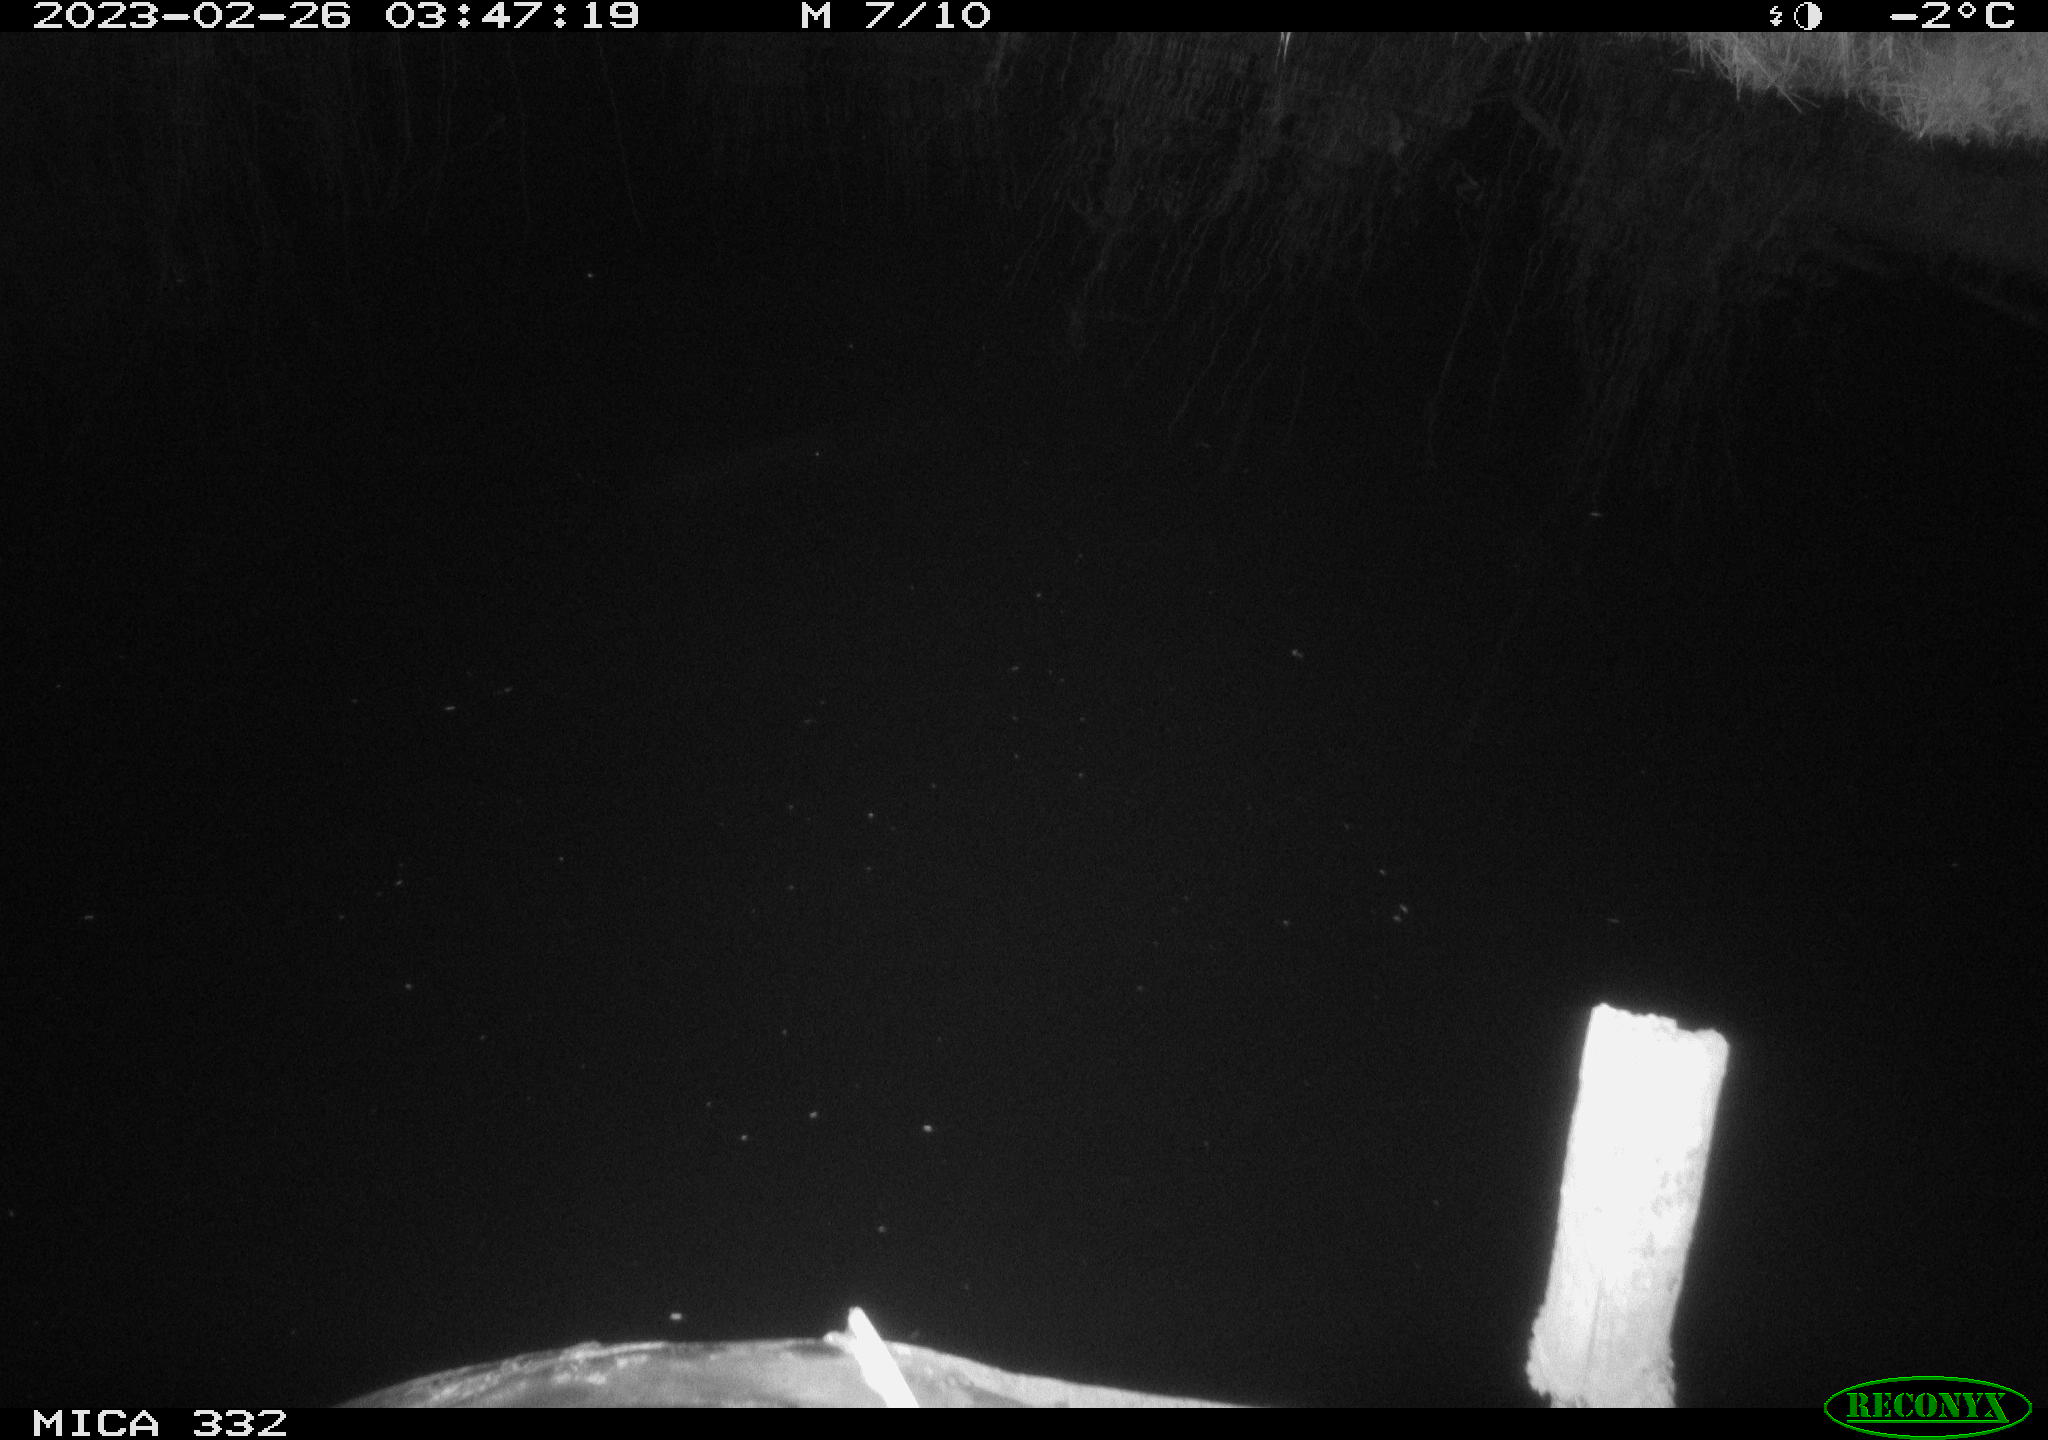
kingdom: Animalia
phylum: Chordata
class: Aves
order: Anseriformes
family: Anatidae
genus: Anas
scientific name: Anas
